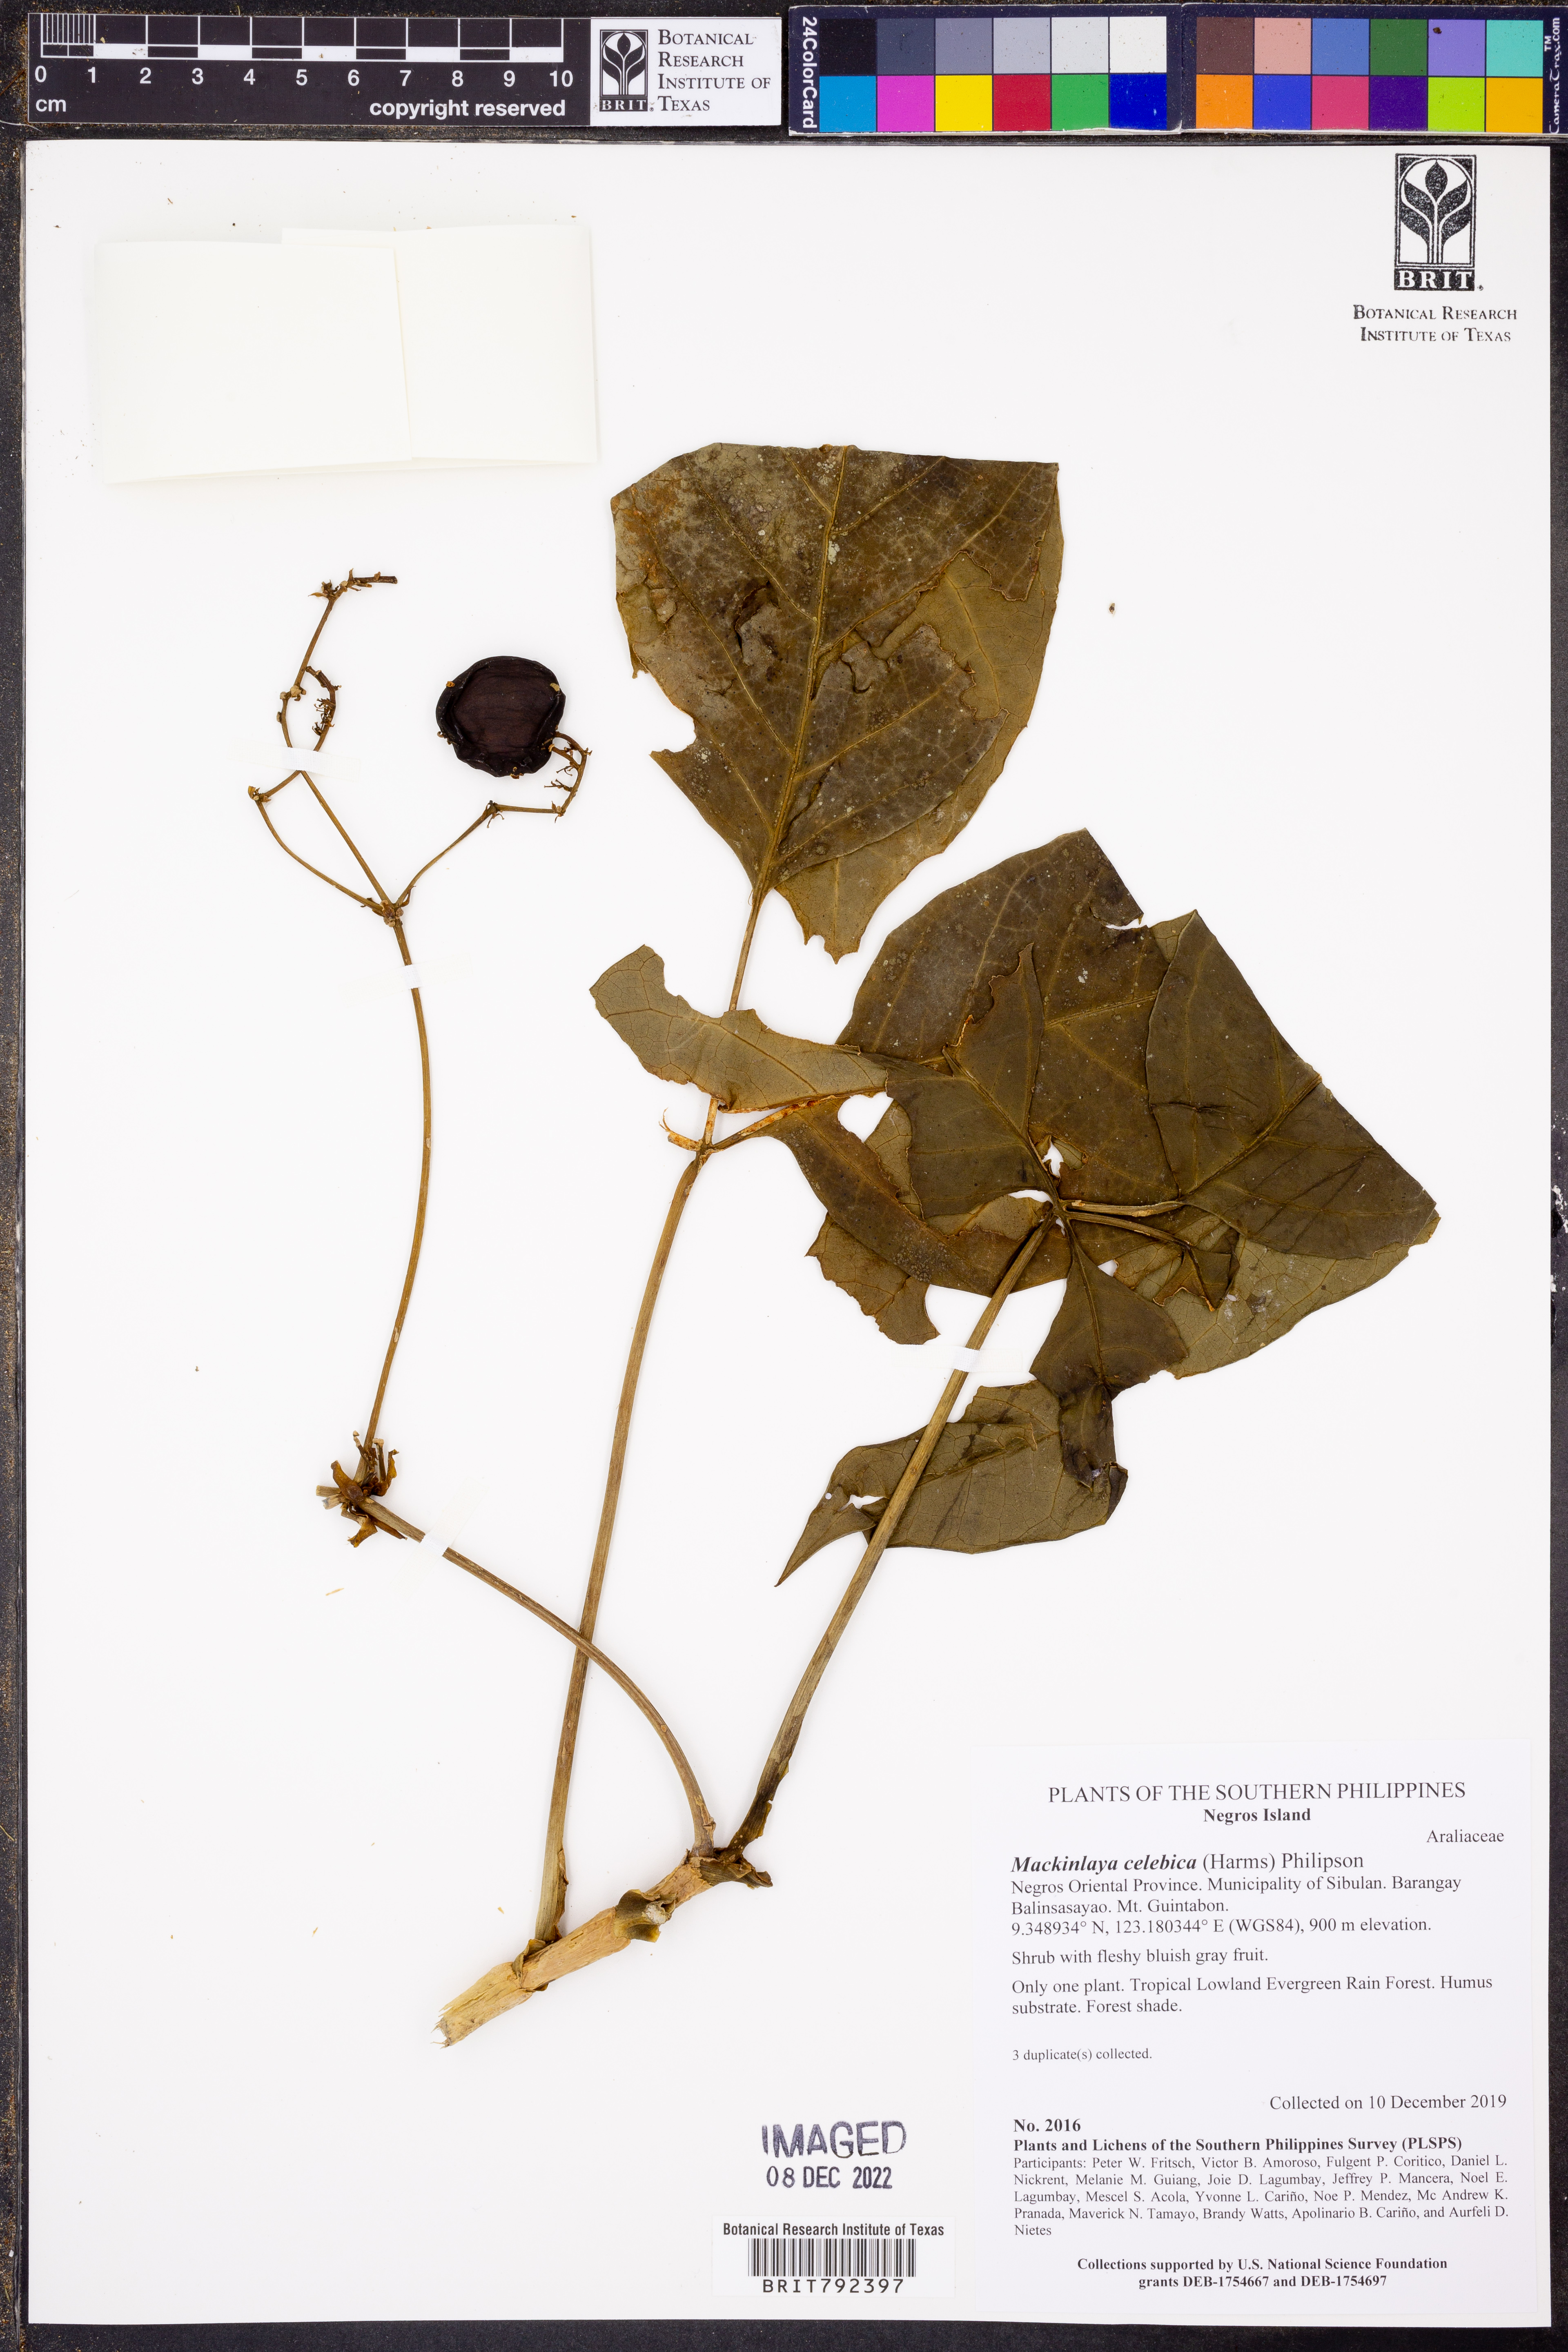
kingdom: Plantae
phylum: Tracheophyta
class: Magnoliopsida
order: Apiales
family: Apiaceae
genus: Mackinlaya
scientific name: Mackinlaya celebica
